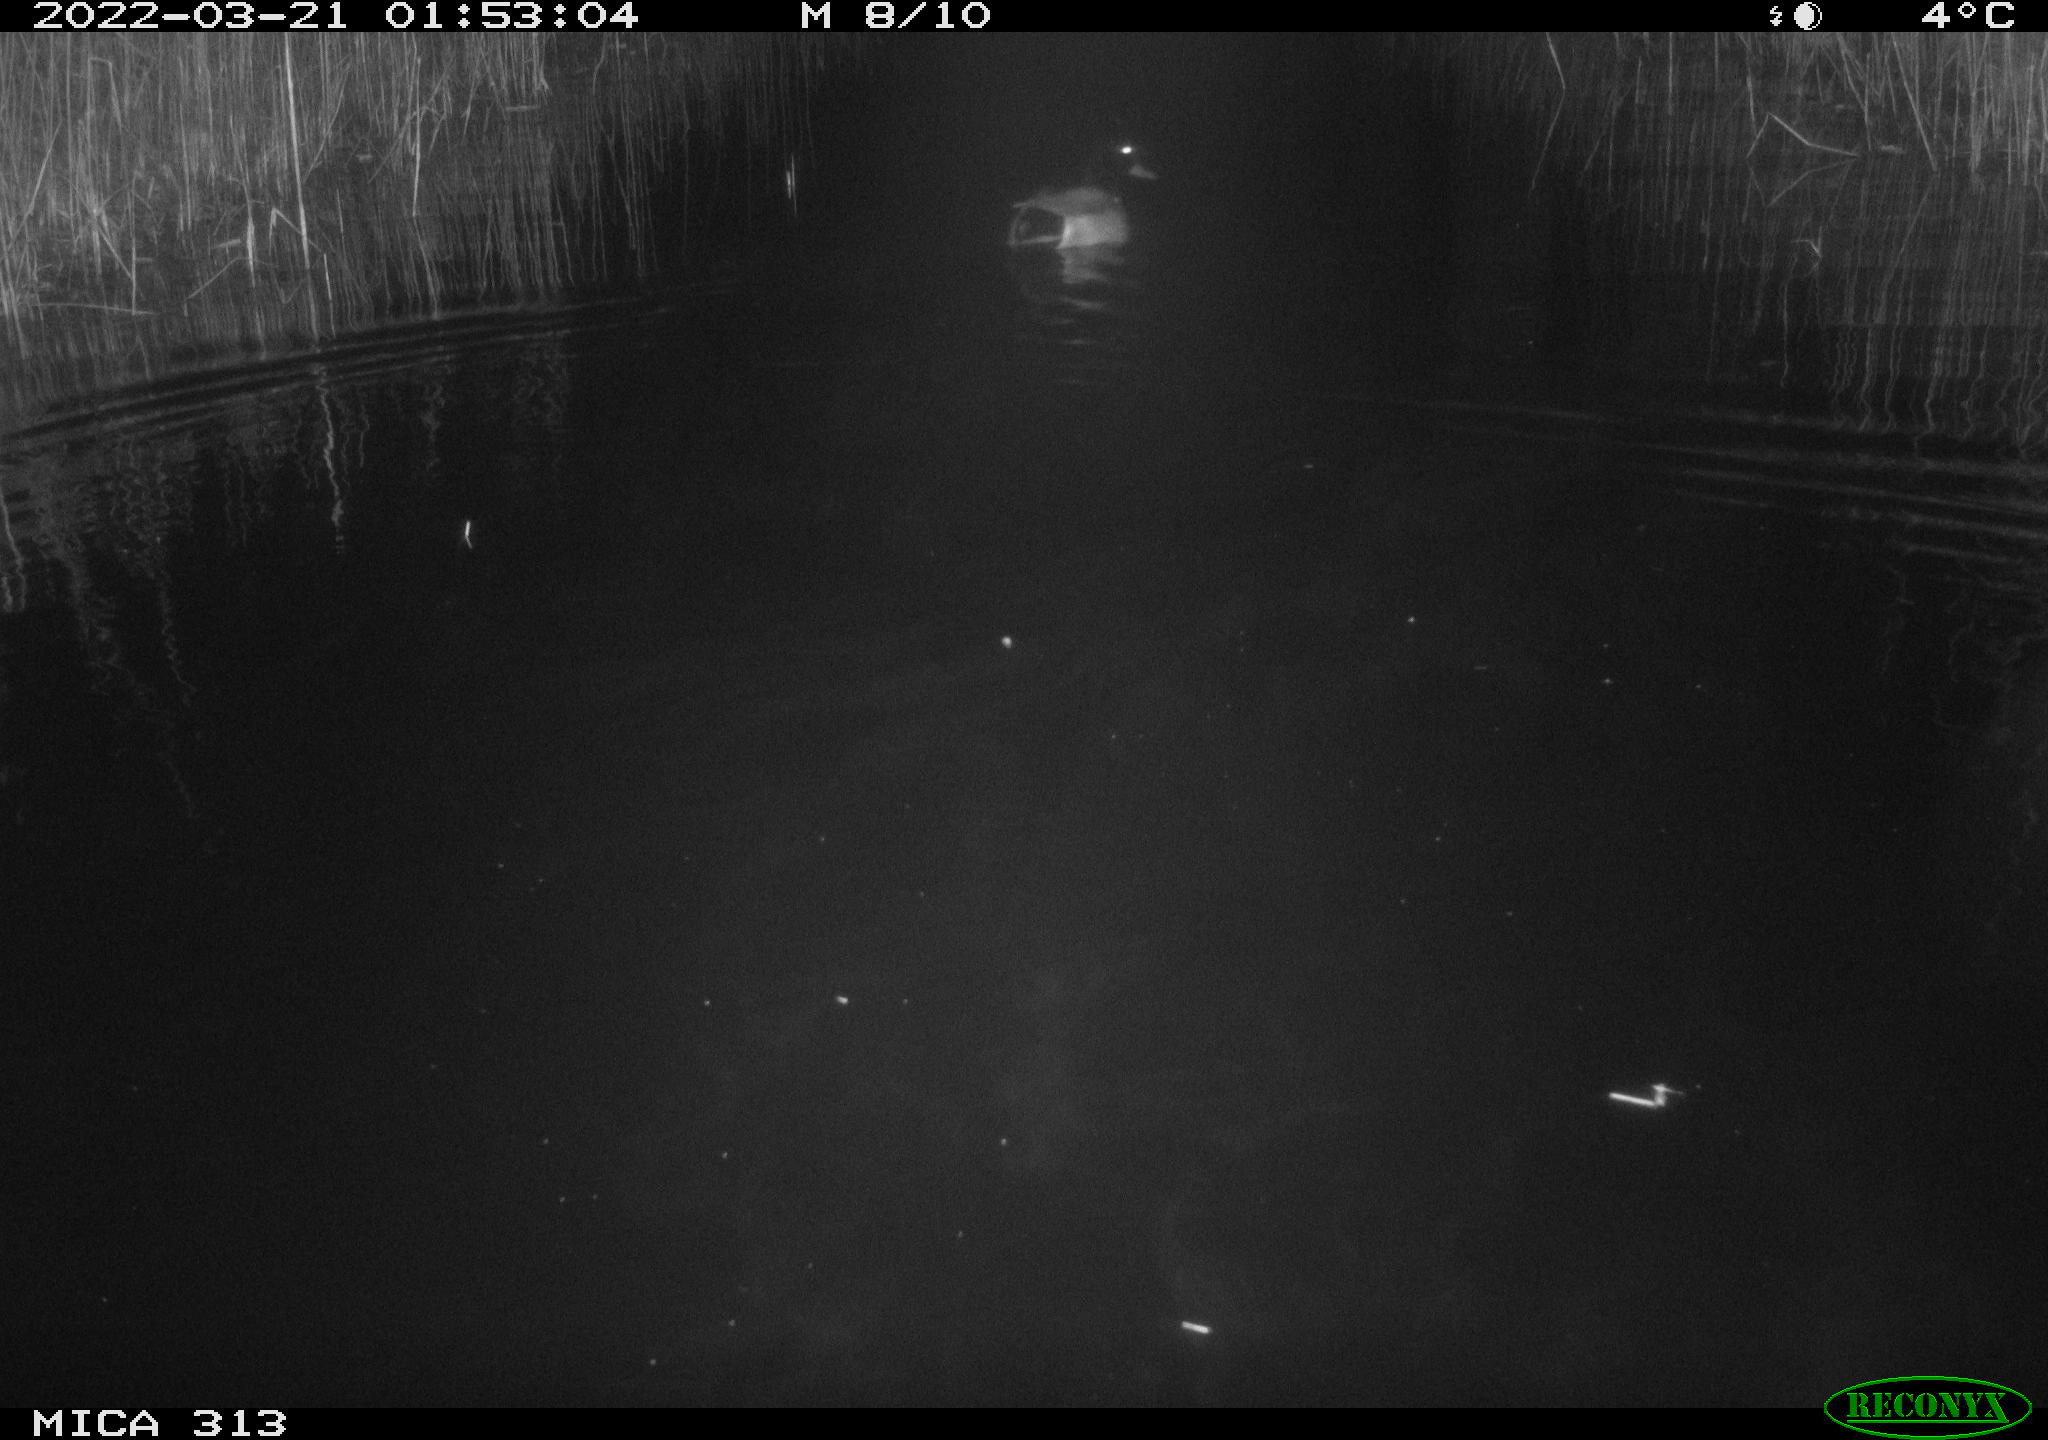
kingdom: Animalia
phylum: Chordata
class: Aves
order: Anseriformes
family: Anatidae
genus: Anas
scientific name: Anas platyrhynchos
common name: Mallard
